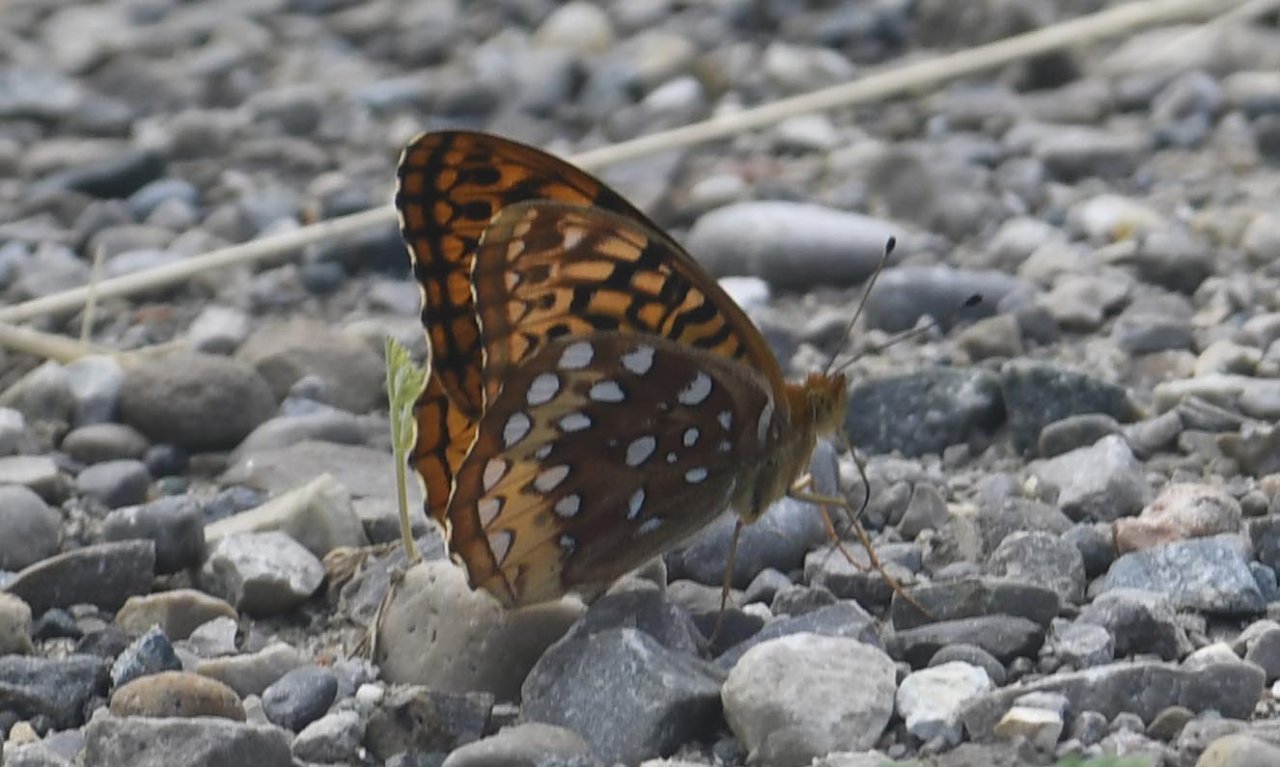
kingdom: Animalia
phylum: Arthropoda
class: Insecta
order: Lepidoptera
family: Nymphalidae
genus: Speyeria
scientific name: Speyeria cybele
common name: Great Spangled Fritillary
